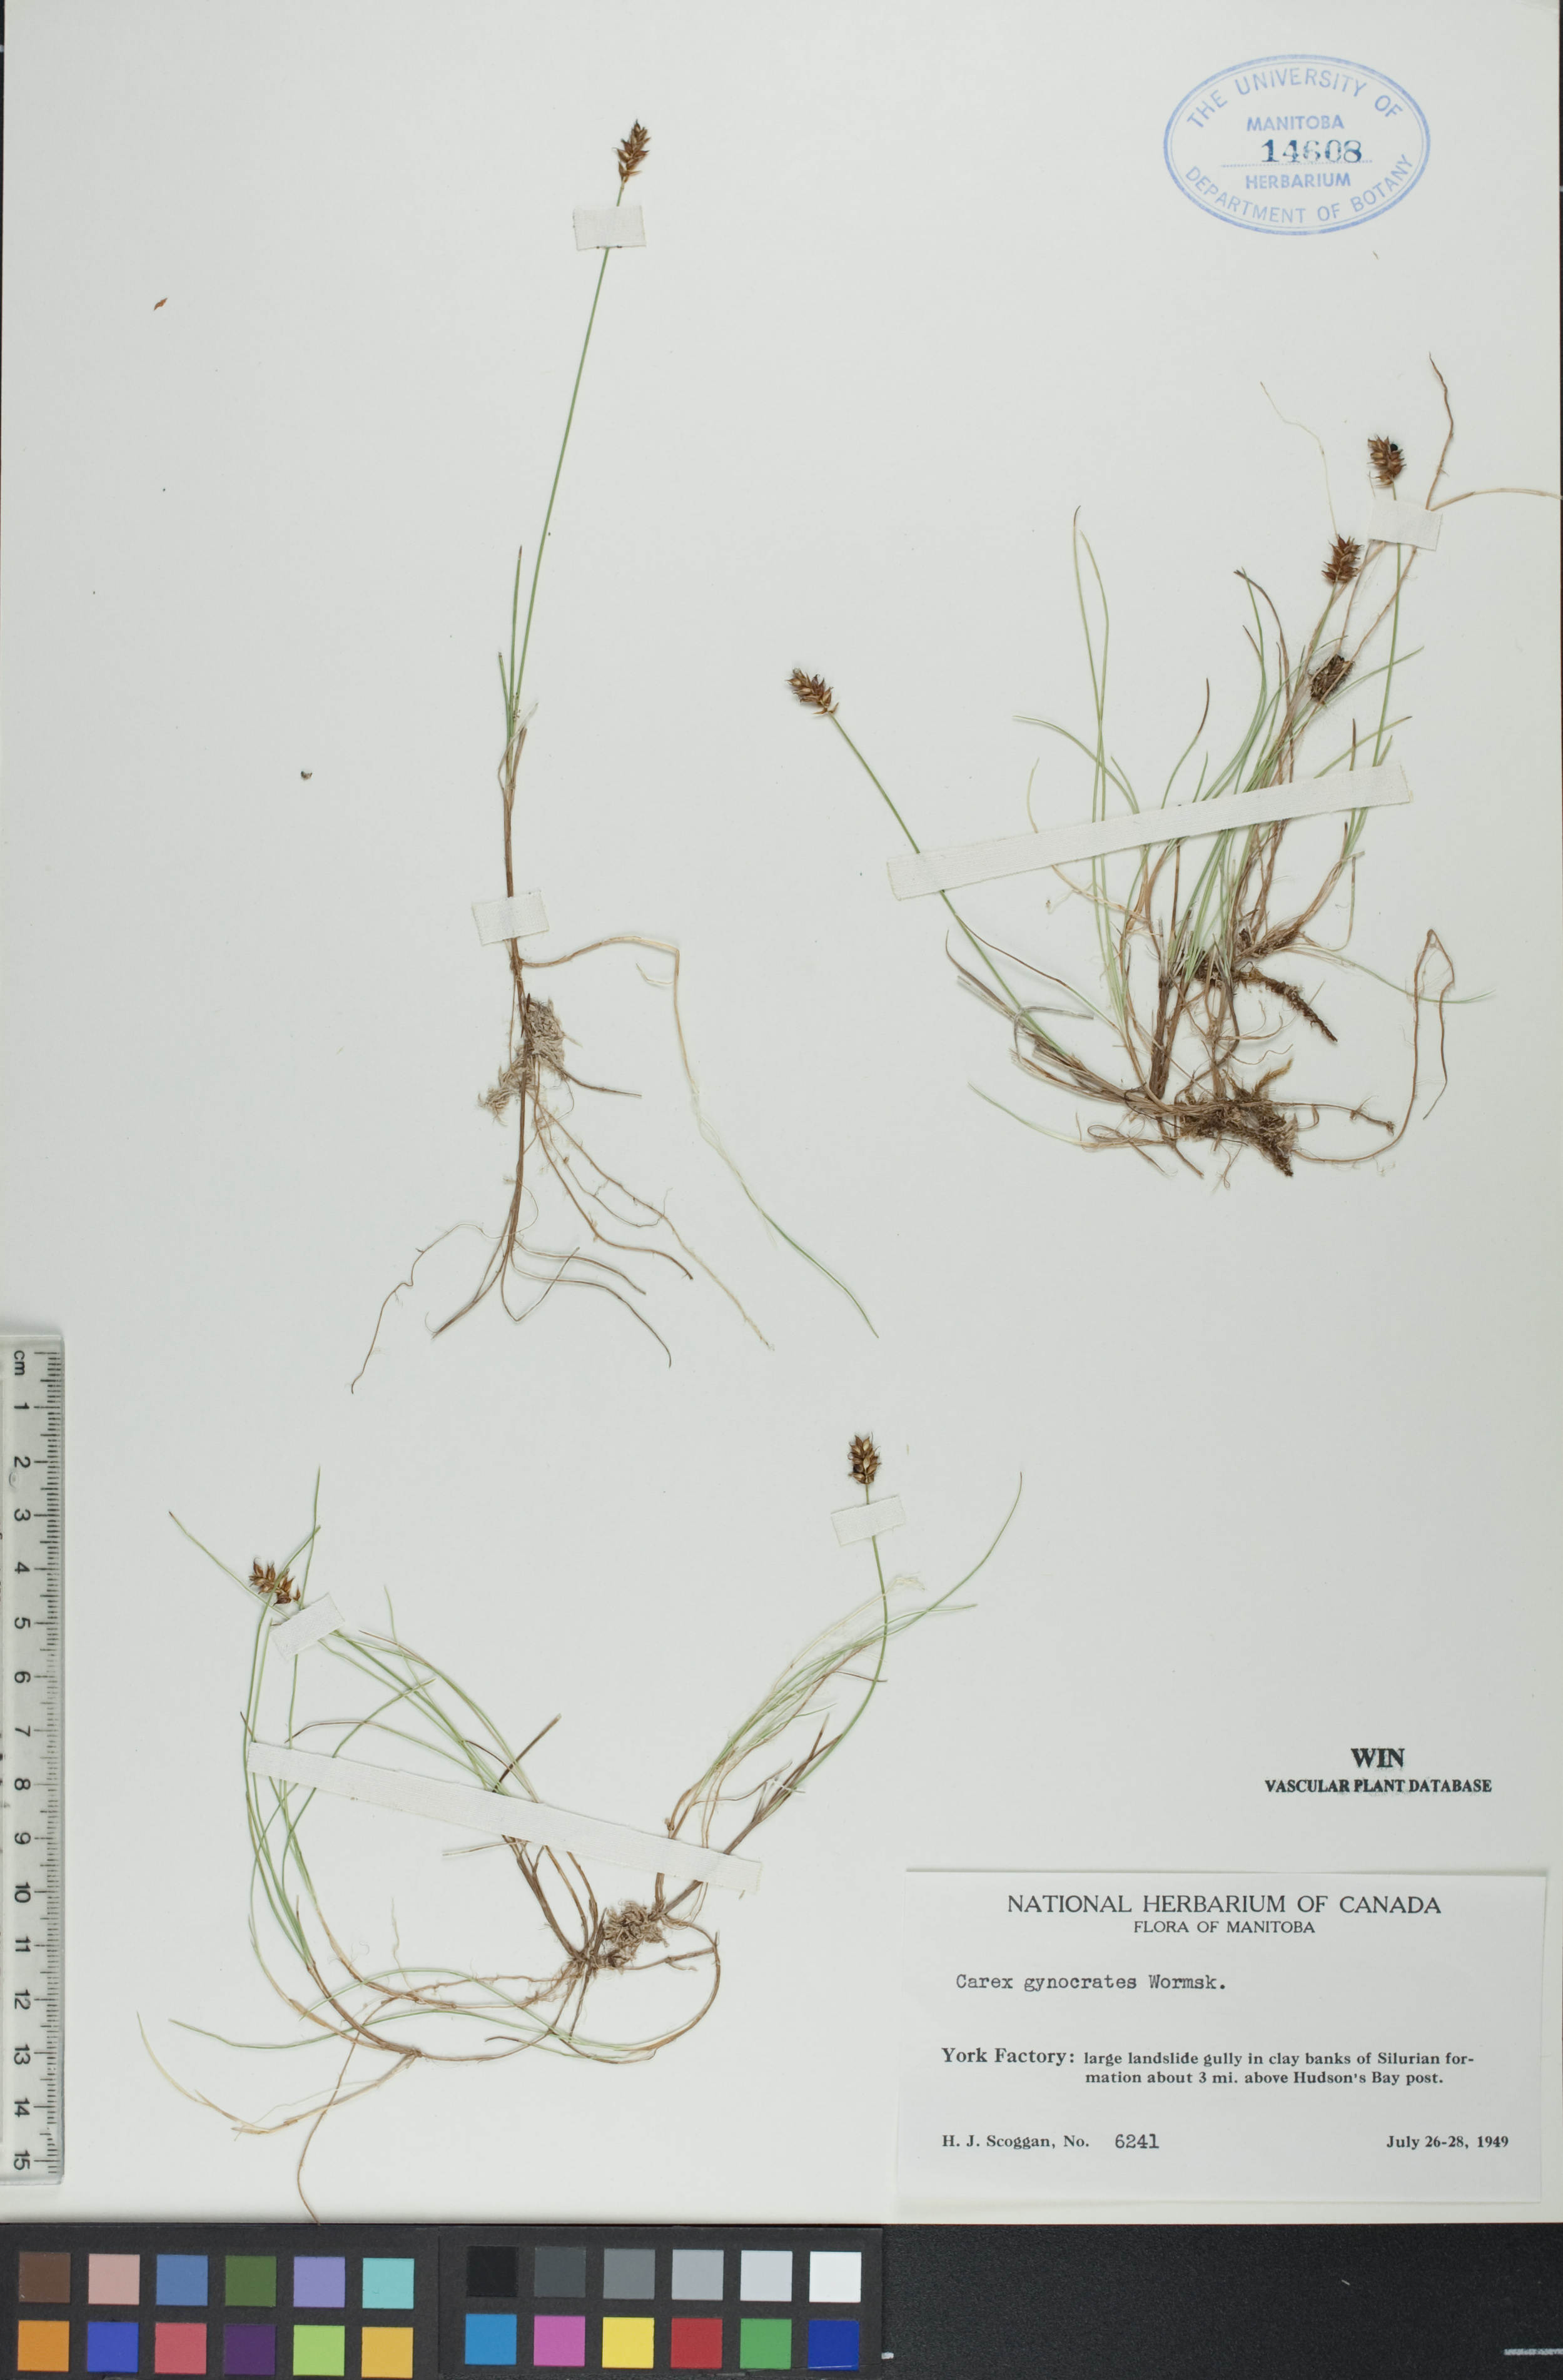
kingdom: Plantae
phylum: Tracheophyta
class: Liliopsida
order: Poales
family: Cyperaceae
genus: Carex
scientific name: Carex nardina
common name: Nard sedge
